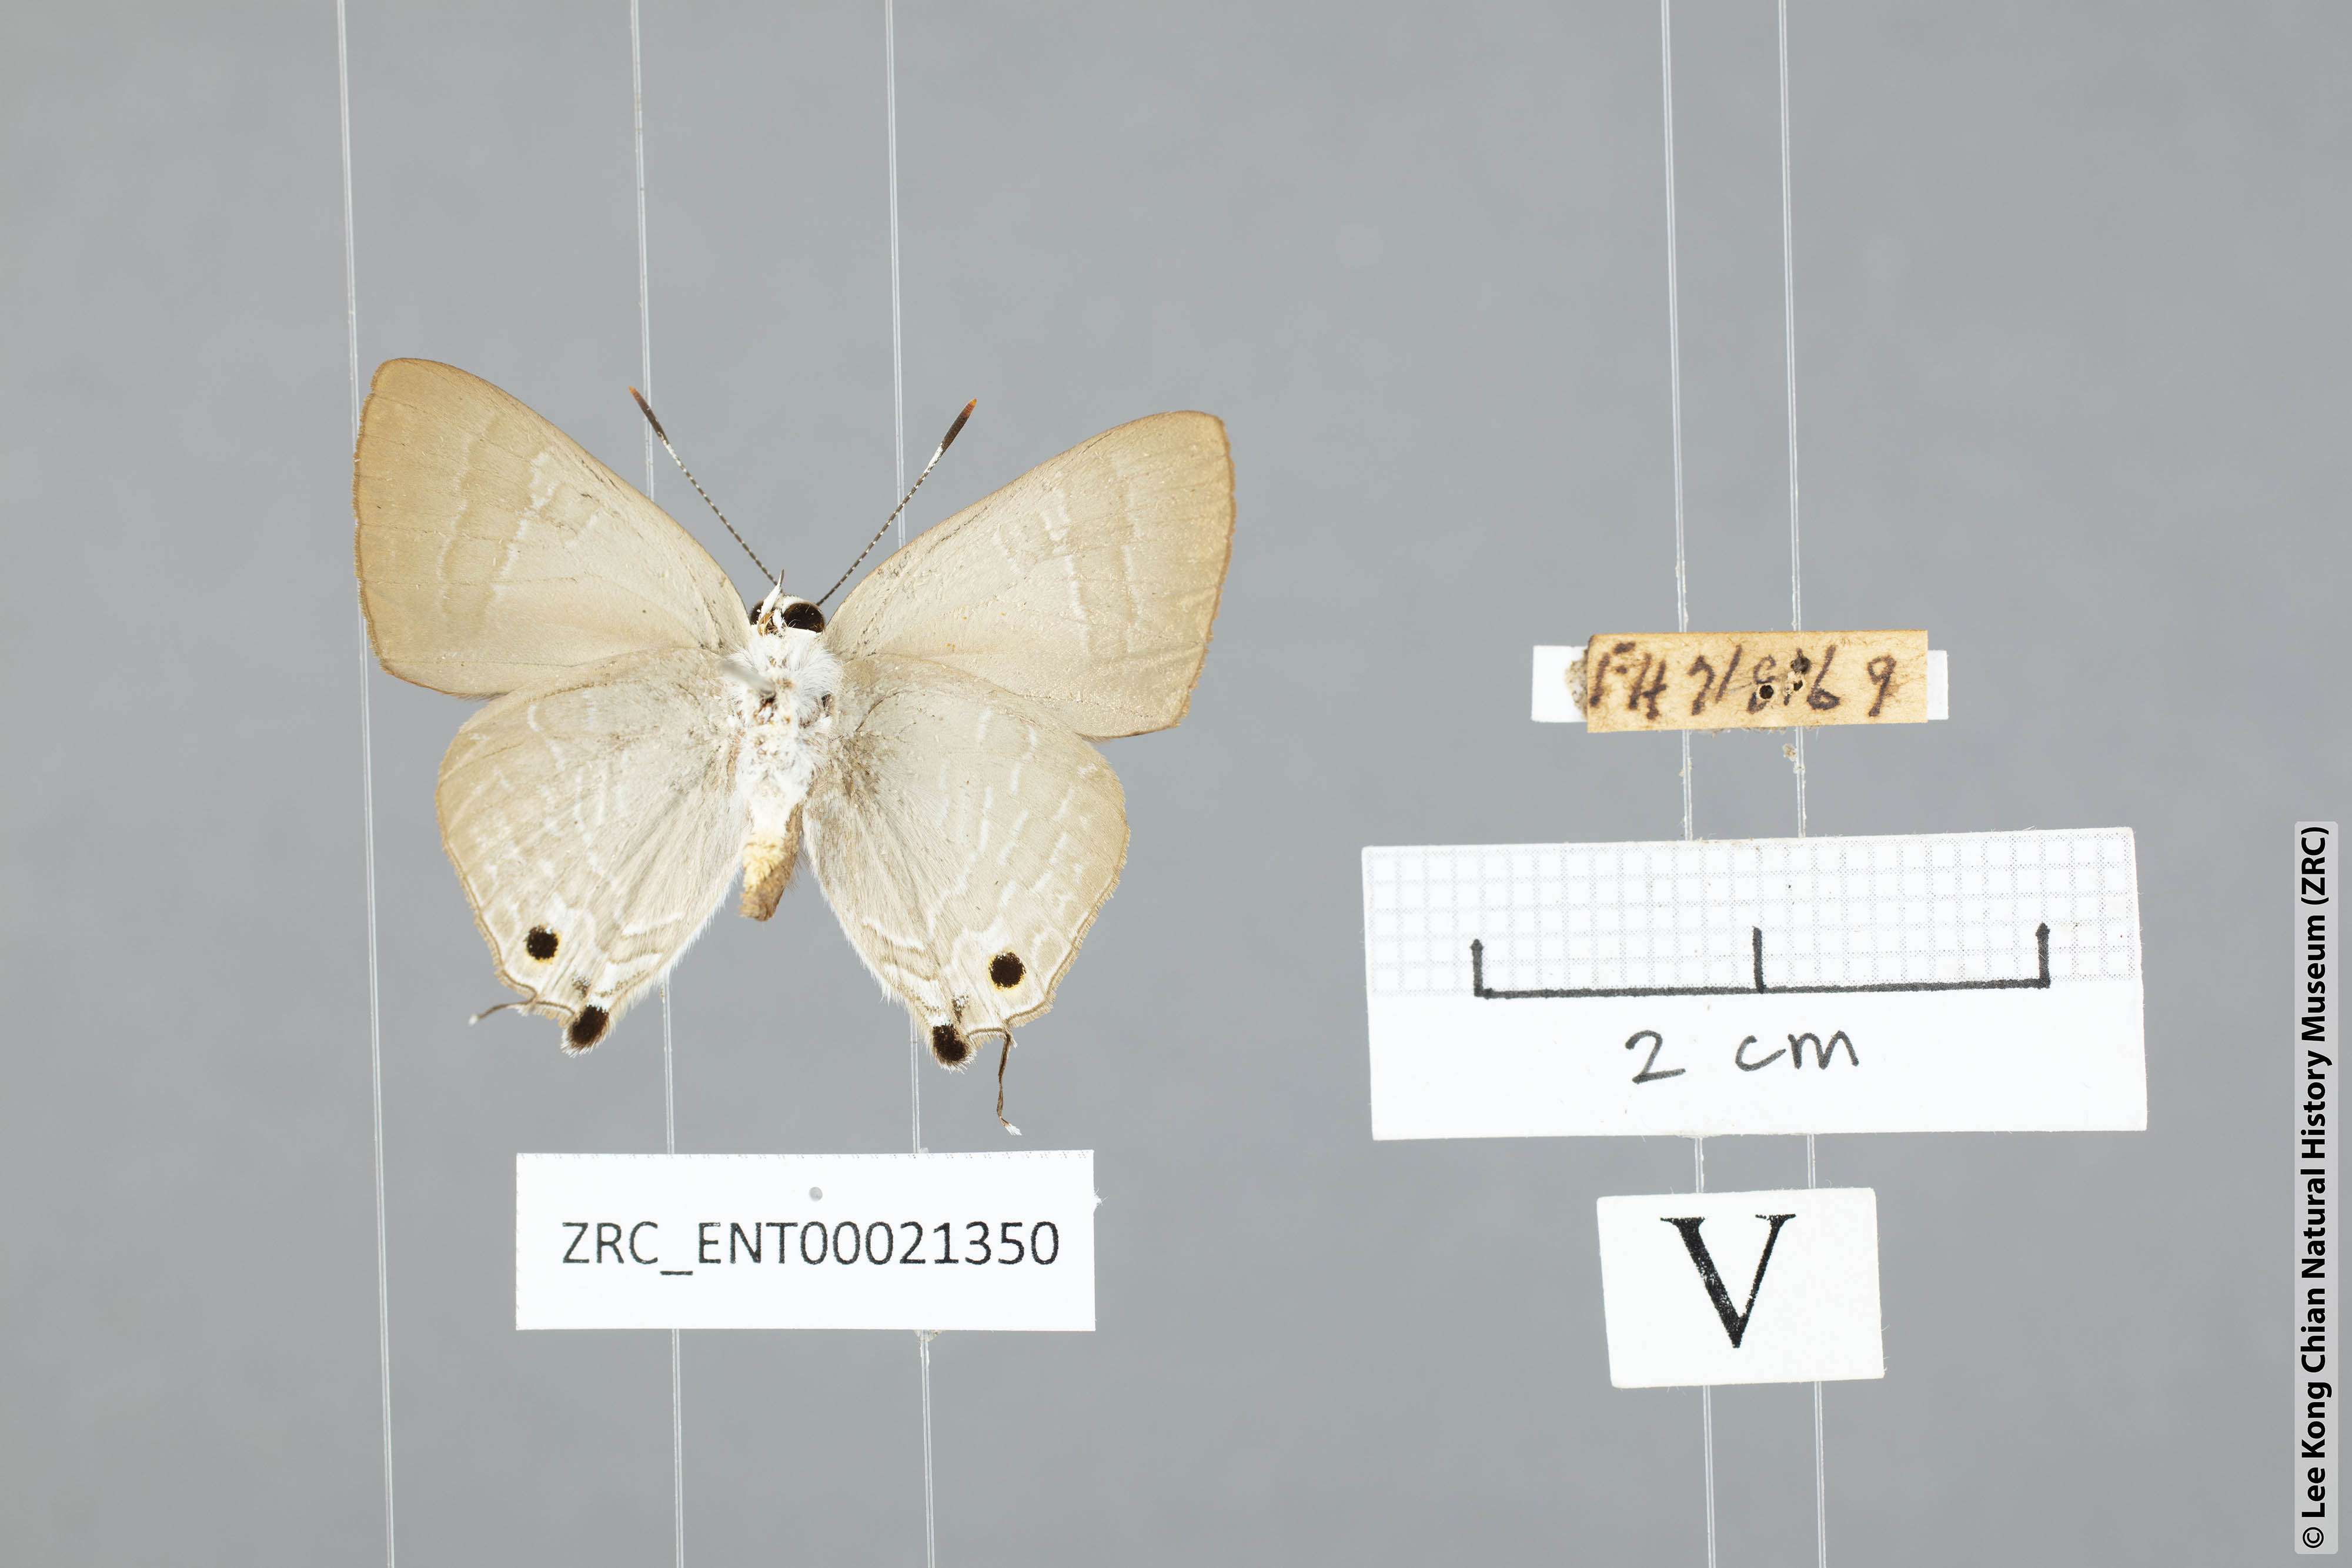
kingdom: Animalia
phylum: Arthropoda
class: Insecta
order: Lepidoptera
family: Lycaenidae
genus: Deudorix
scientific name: Deudorix staudingeri
